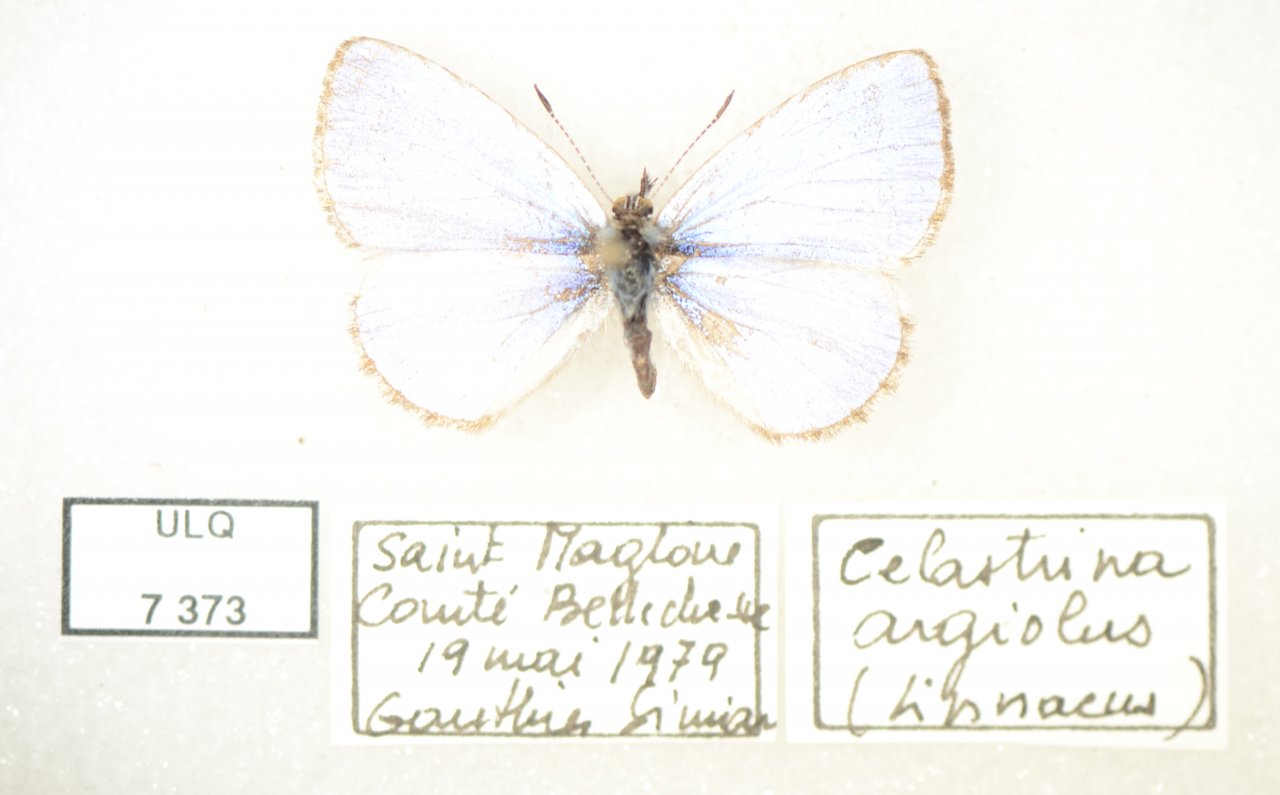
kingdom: Animalia
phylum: Arthropoda
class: Insecta
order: Lepidoptera
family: Lycaenidae
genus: Celastrina
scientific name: Celastrina lucia
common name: Northern Spring Azure
